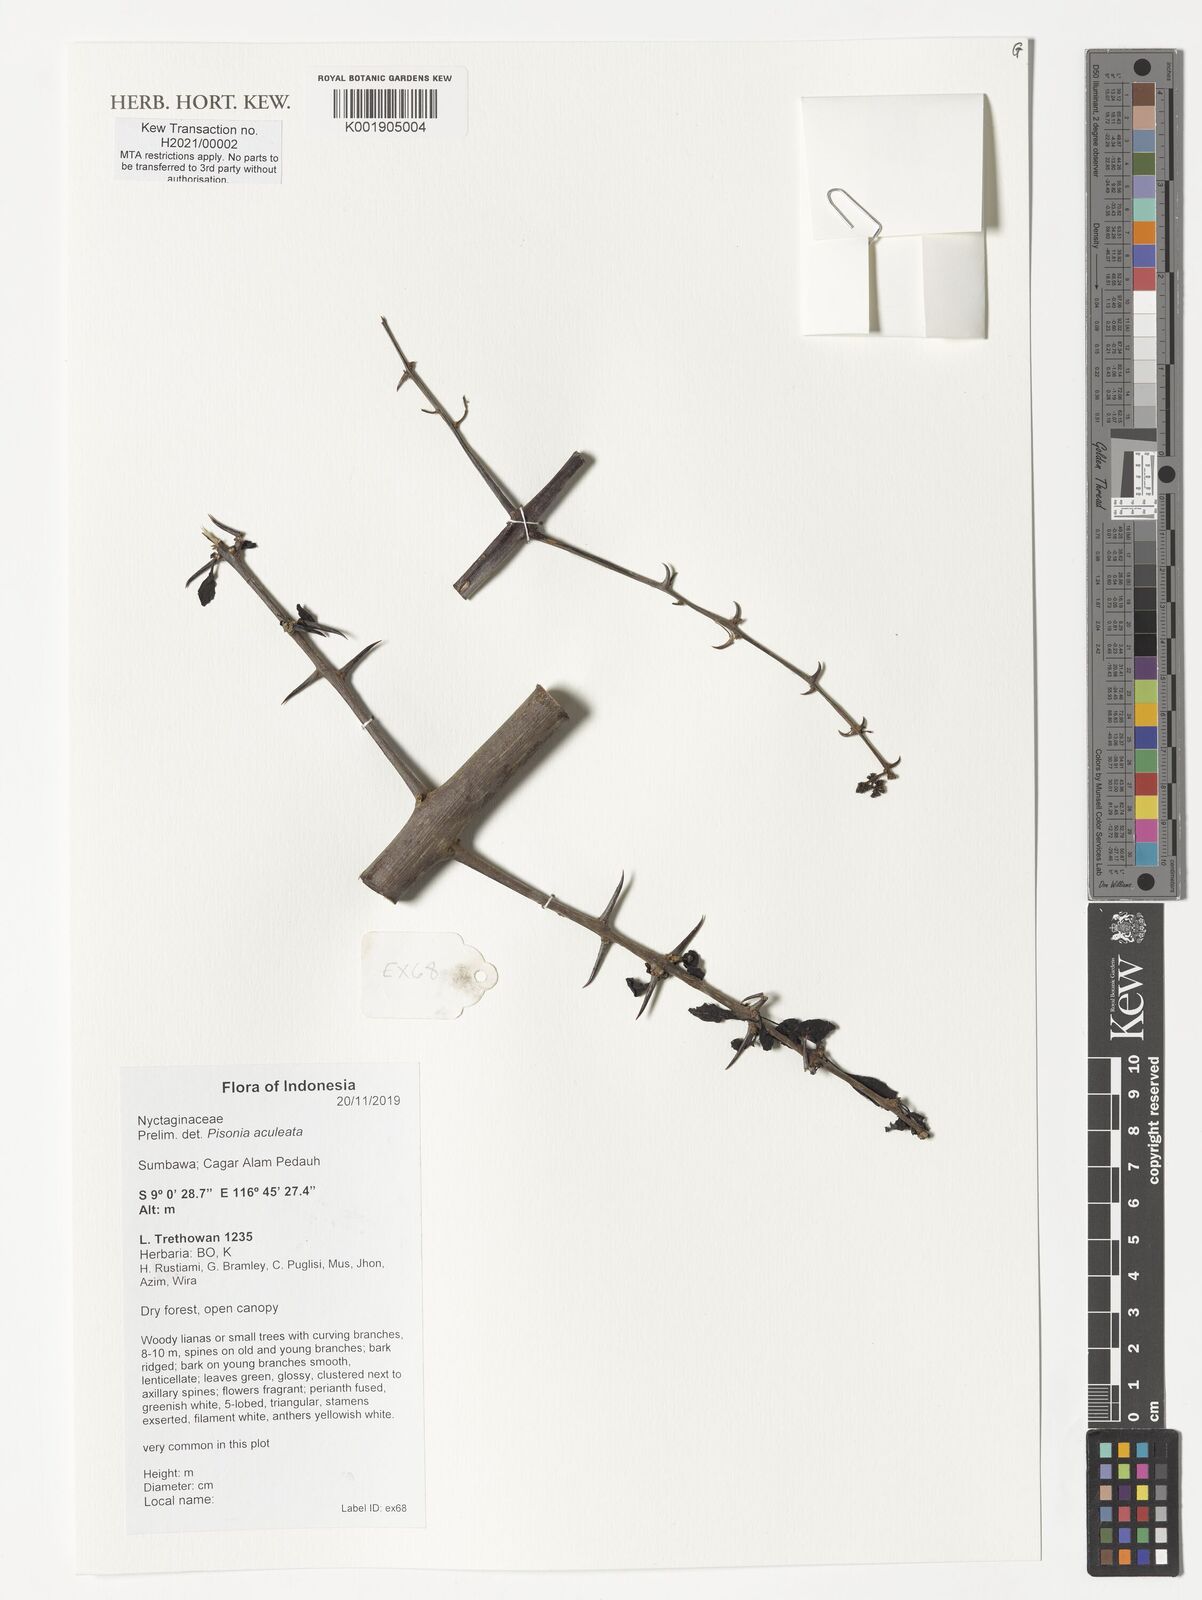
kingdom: Plantae
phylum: Tracheophyta
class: Magnoliopsida
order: Caryophyllales
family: Nyctaginaceae
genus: Pisonia
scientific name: Pisonia aculeata
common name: Cockspur vine
